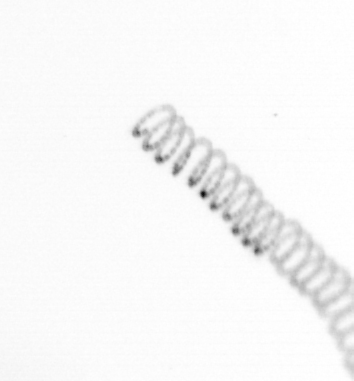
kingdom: Chromista
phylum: Ochrophyta
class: Bacillariophyceae
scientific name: Bacillariophyceae
